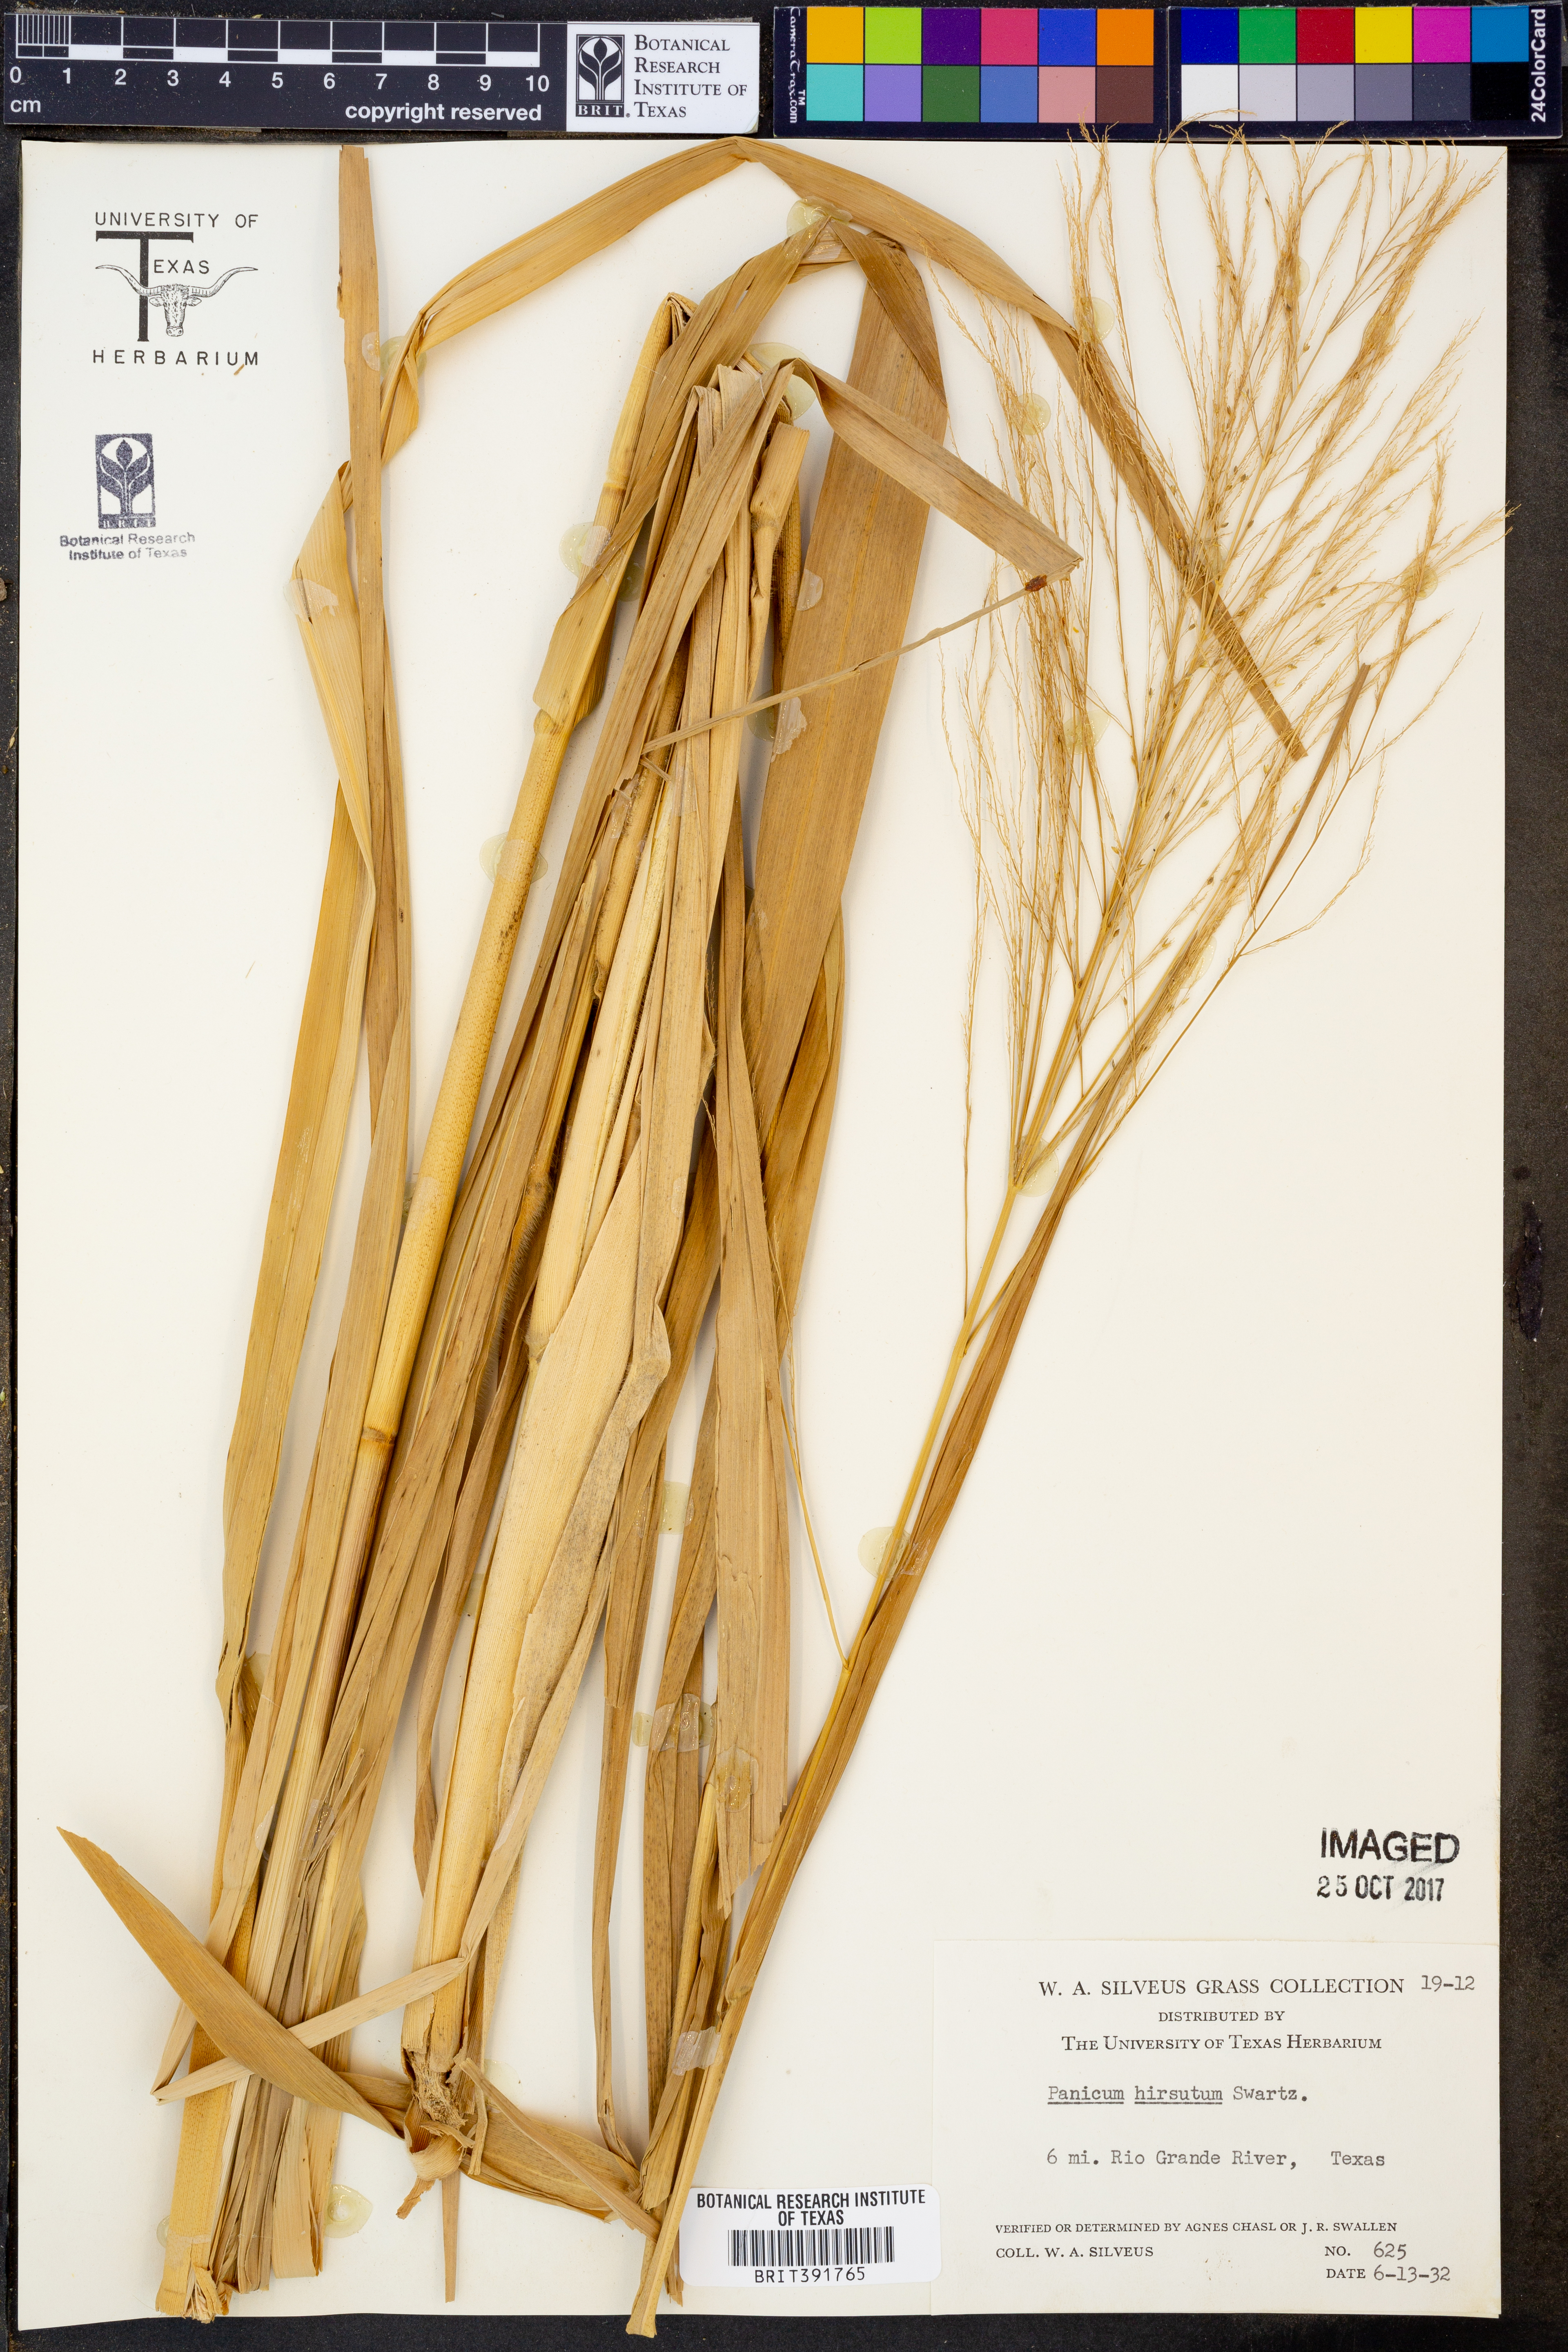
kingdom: Plantae
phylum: Tracheophyta
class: Liliopsida
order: Poales
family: Poaceae
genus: Panicum
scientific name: Panicum hirsutum
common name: Giant witchgrass
